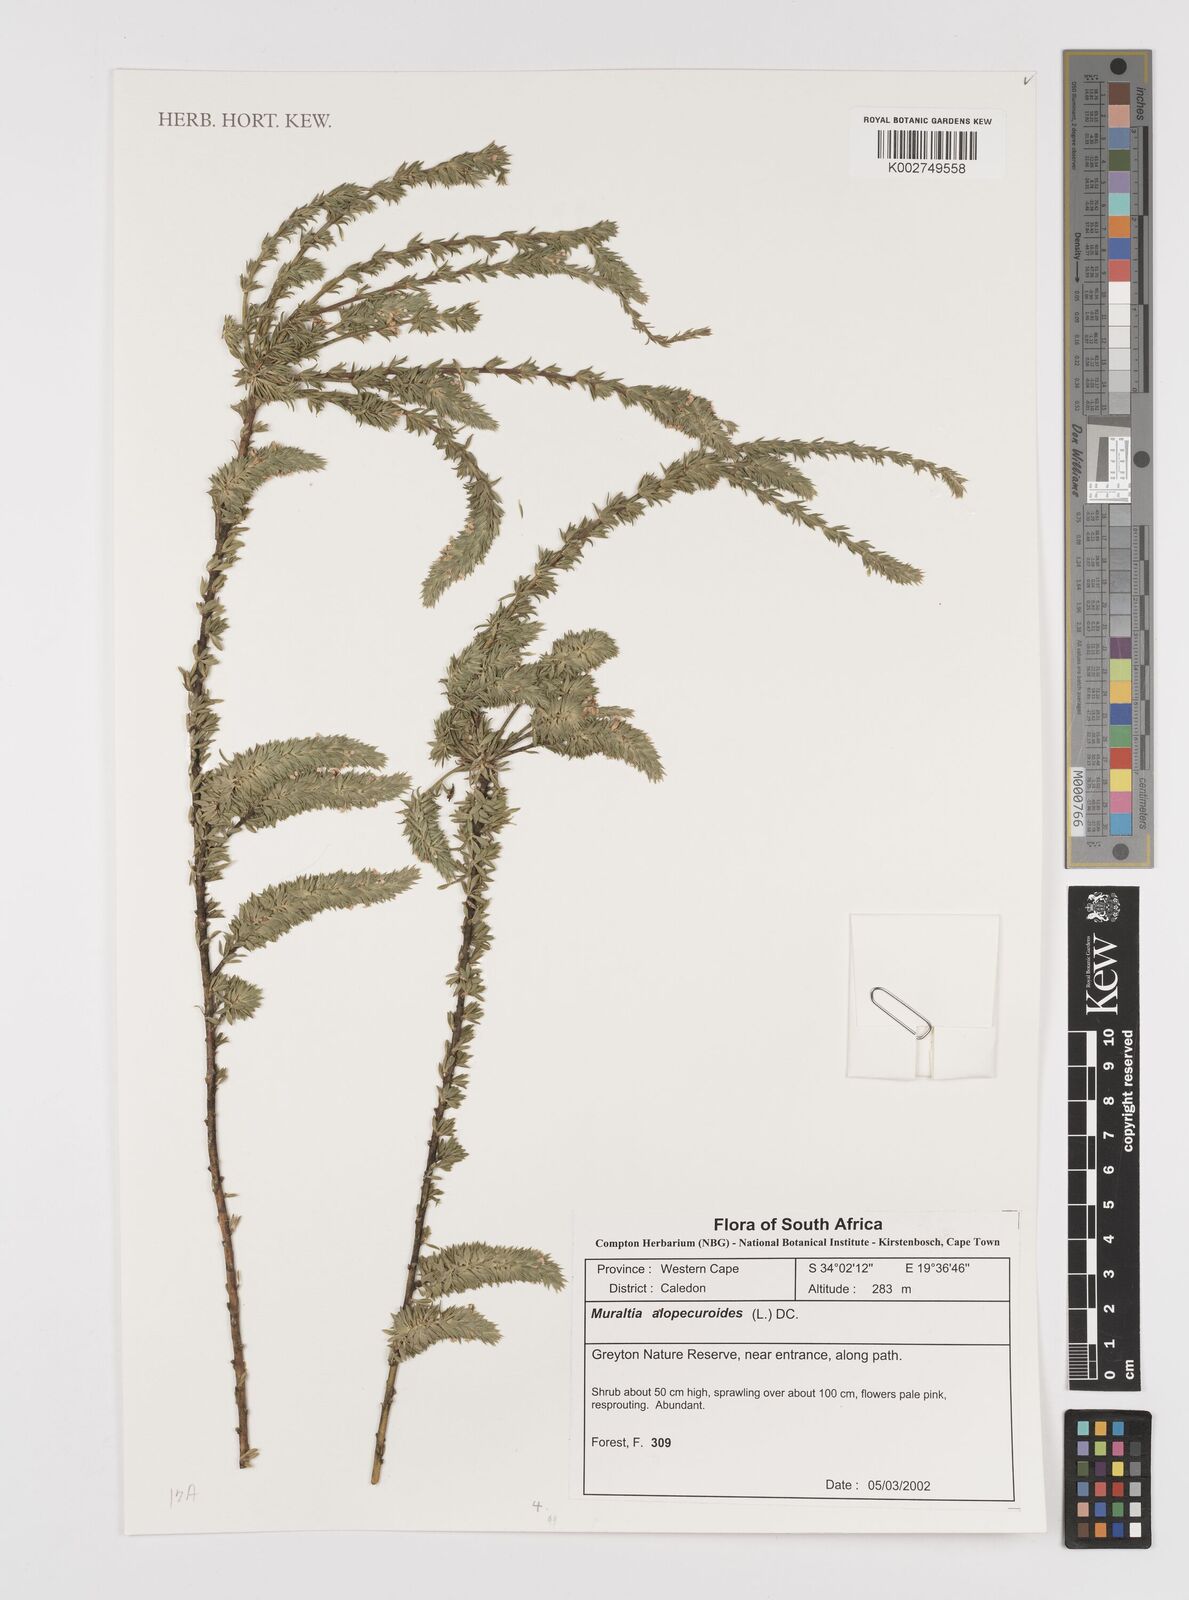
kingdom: Plantae
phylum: Tracheophyta
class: Magnoliopsida
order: Fabales
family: Polygalaceae
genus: Muraltia
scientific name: Muraltia alopecuroides
